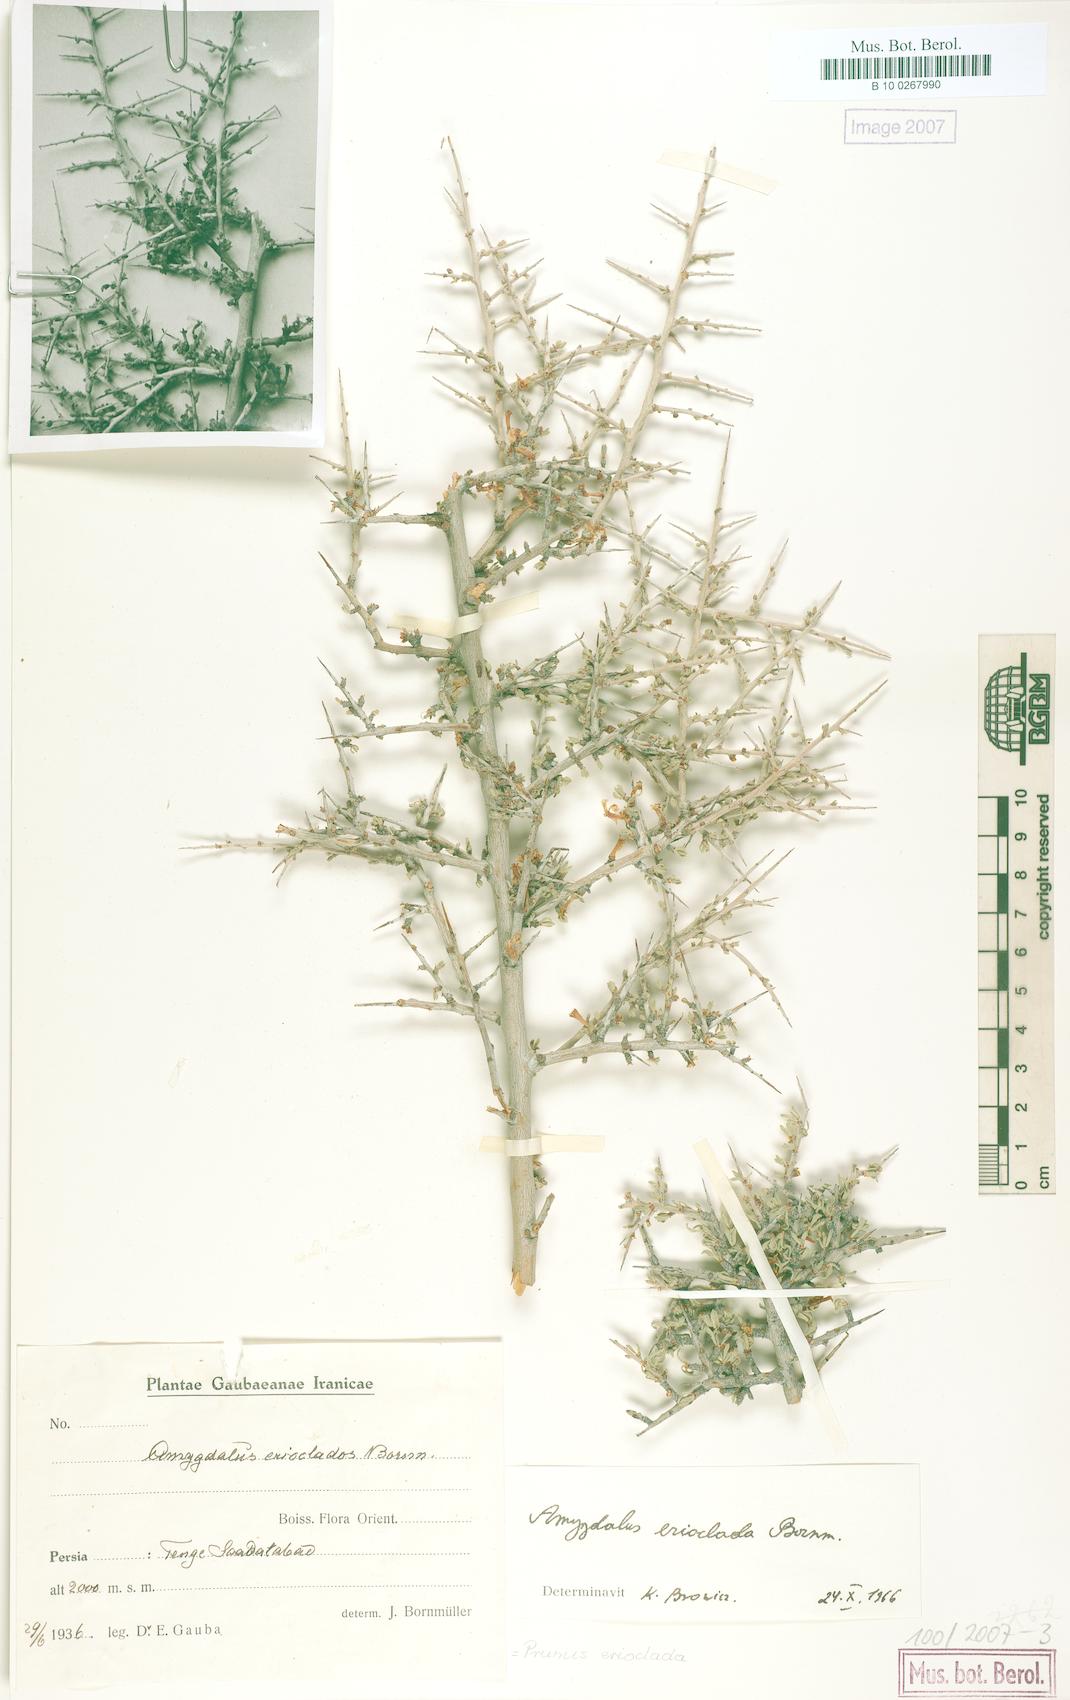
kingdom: Plantae
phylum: Tracheophyta
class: Magnoliopsida
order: Rosales
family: Rosaceae
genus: Prunus
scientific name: Prunus erioclada
